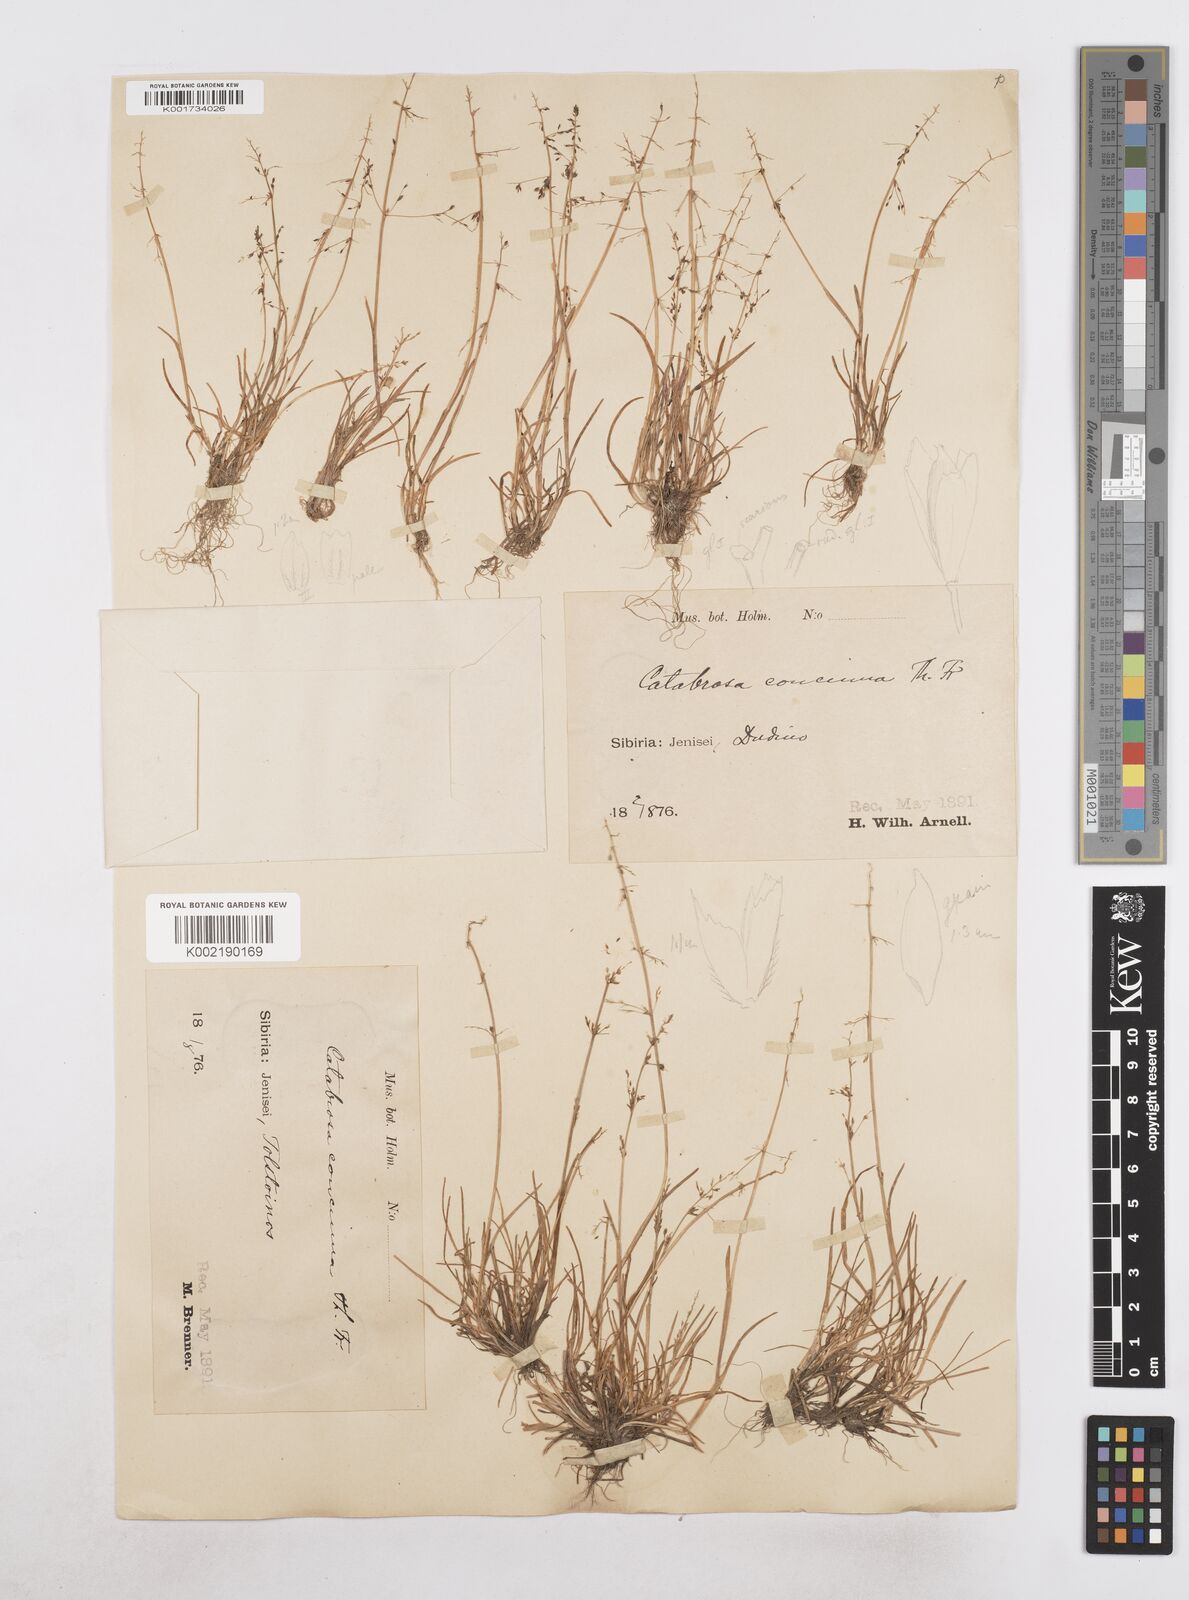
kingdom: Plantae
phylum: Tracheophyta
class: Liliopsida
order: Poales
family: Poaceae
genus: Phippsia
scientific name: Phippsia concinna
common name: Snowgrass
